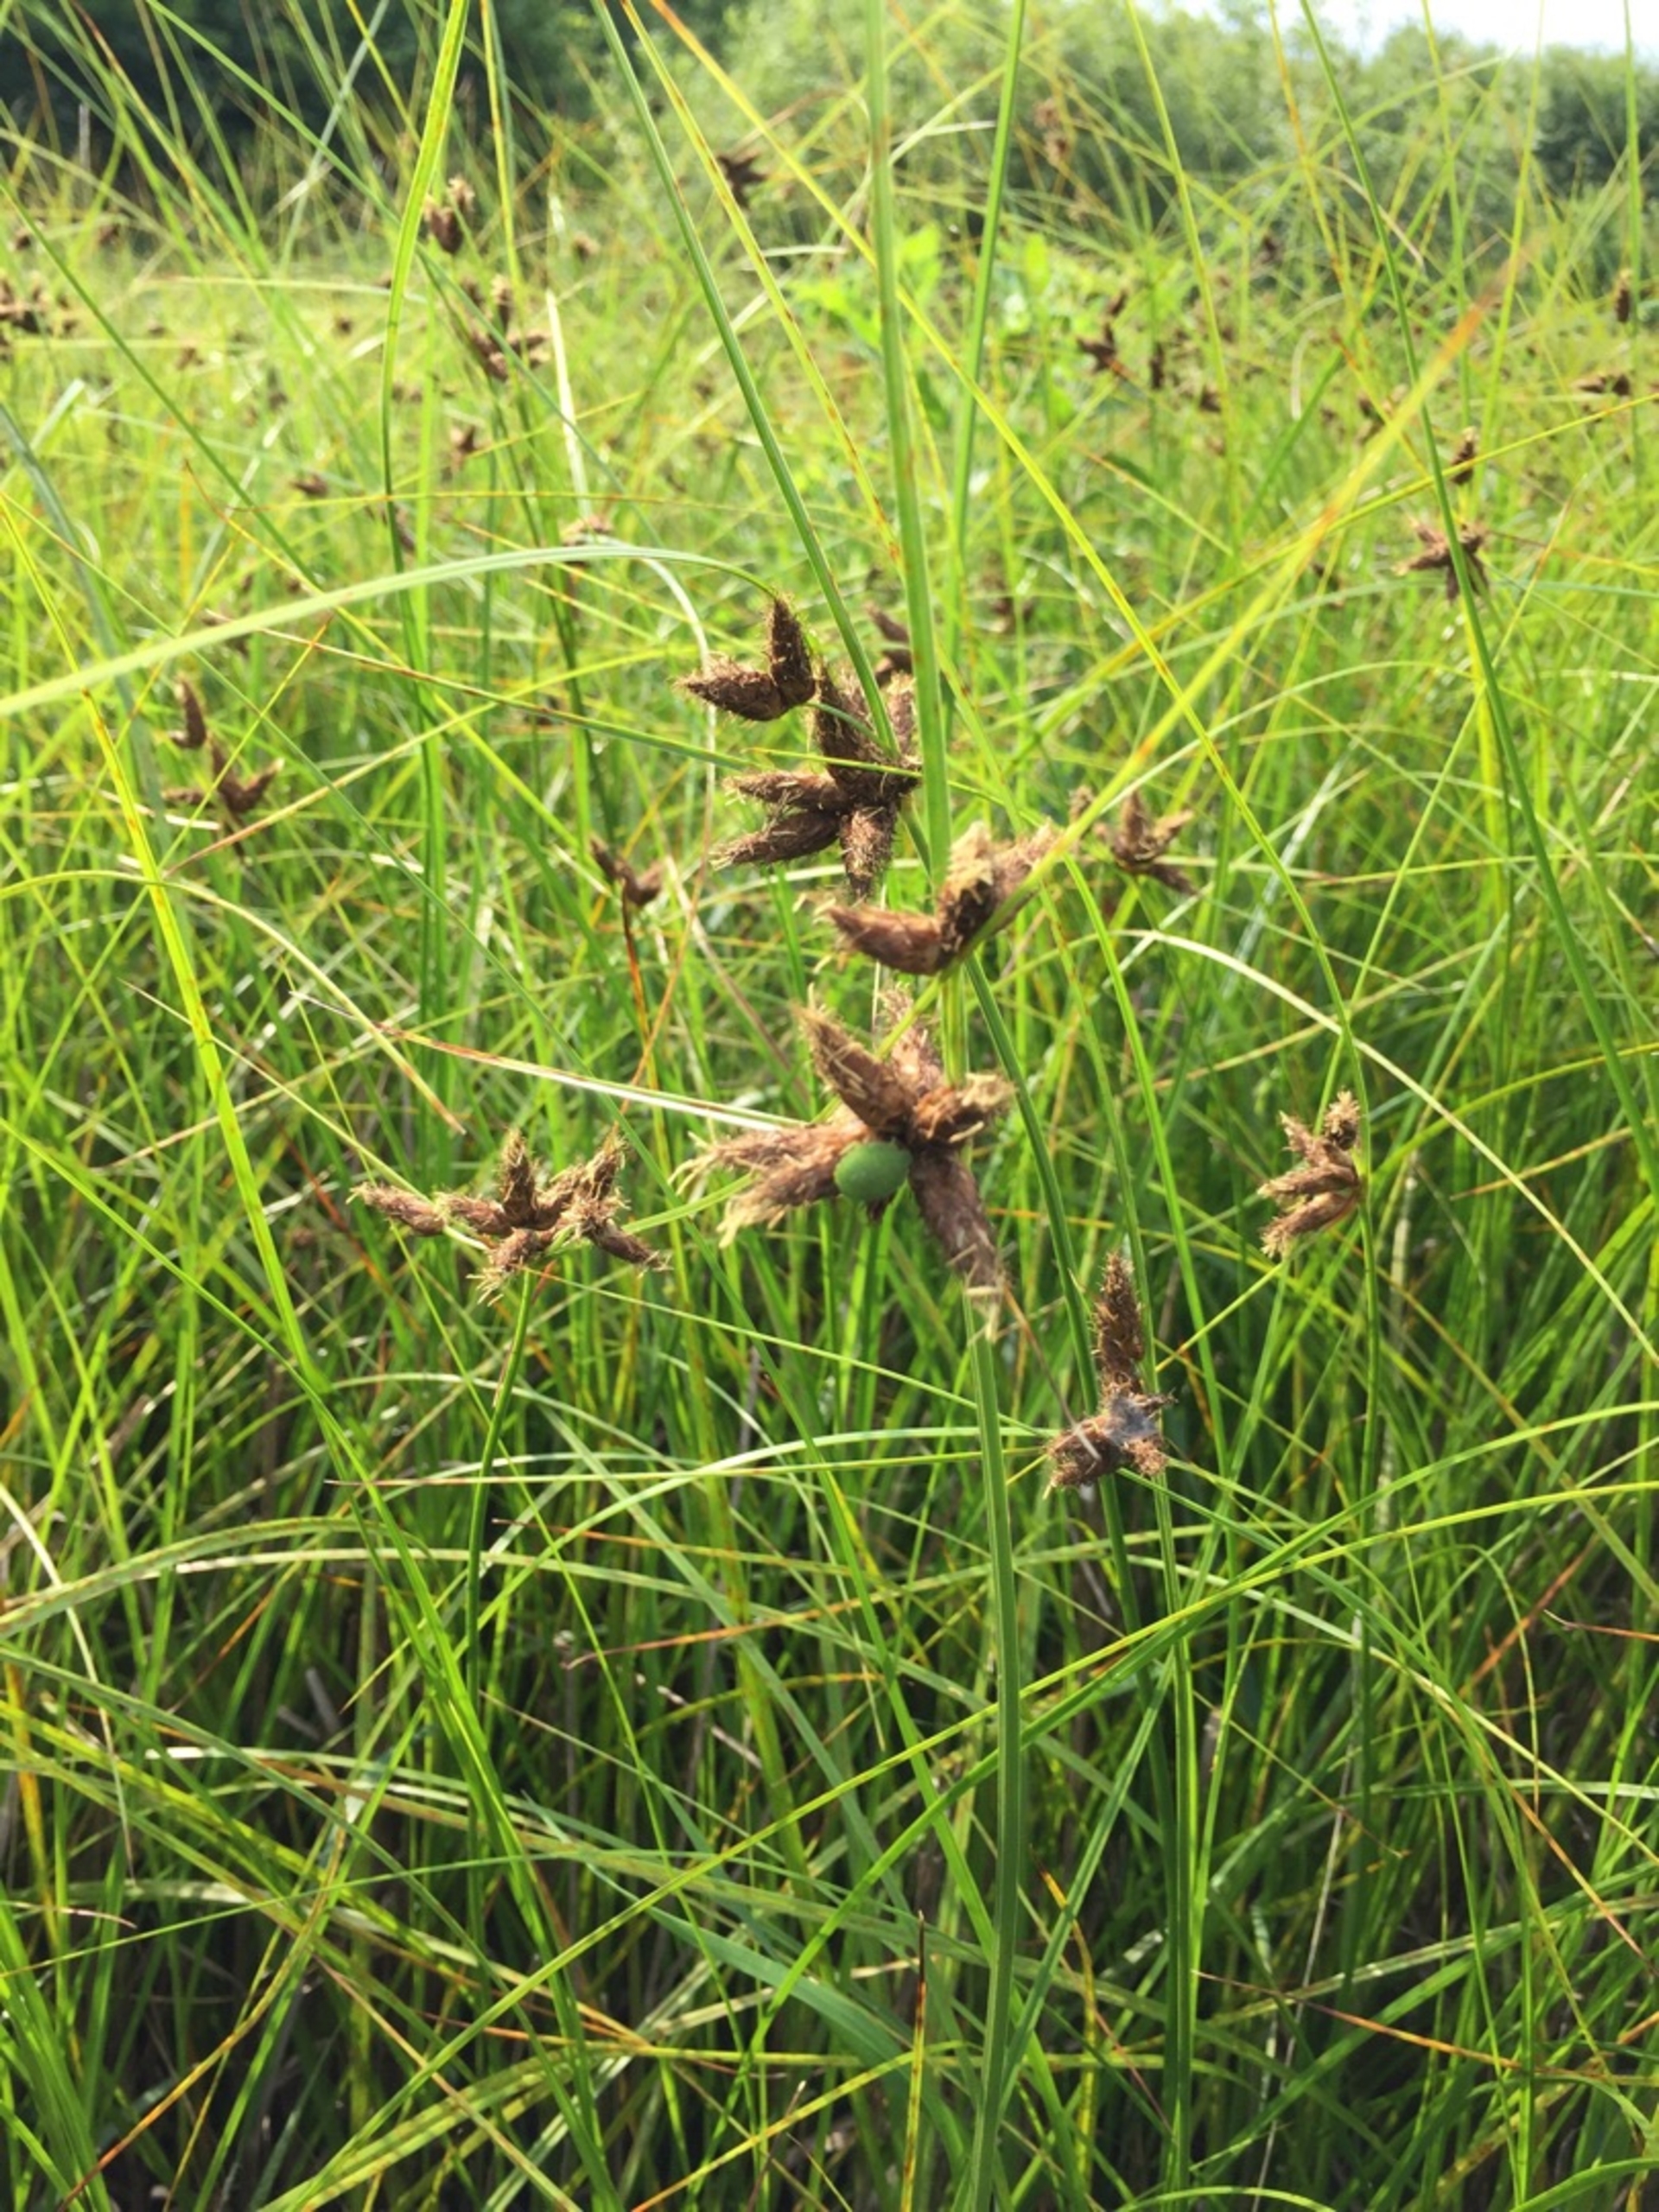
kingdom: Plantae
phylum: Tracheophyta
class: Liliopsida
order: Poales
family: Cyperaceae
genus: Bolboschoenus
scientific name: Bolboschoenus maritimus
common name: Strand-kogleaks
